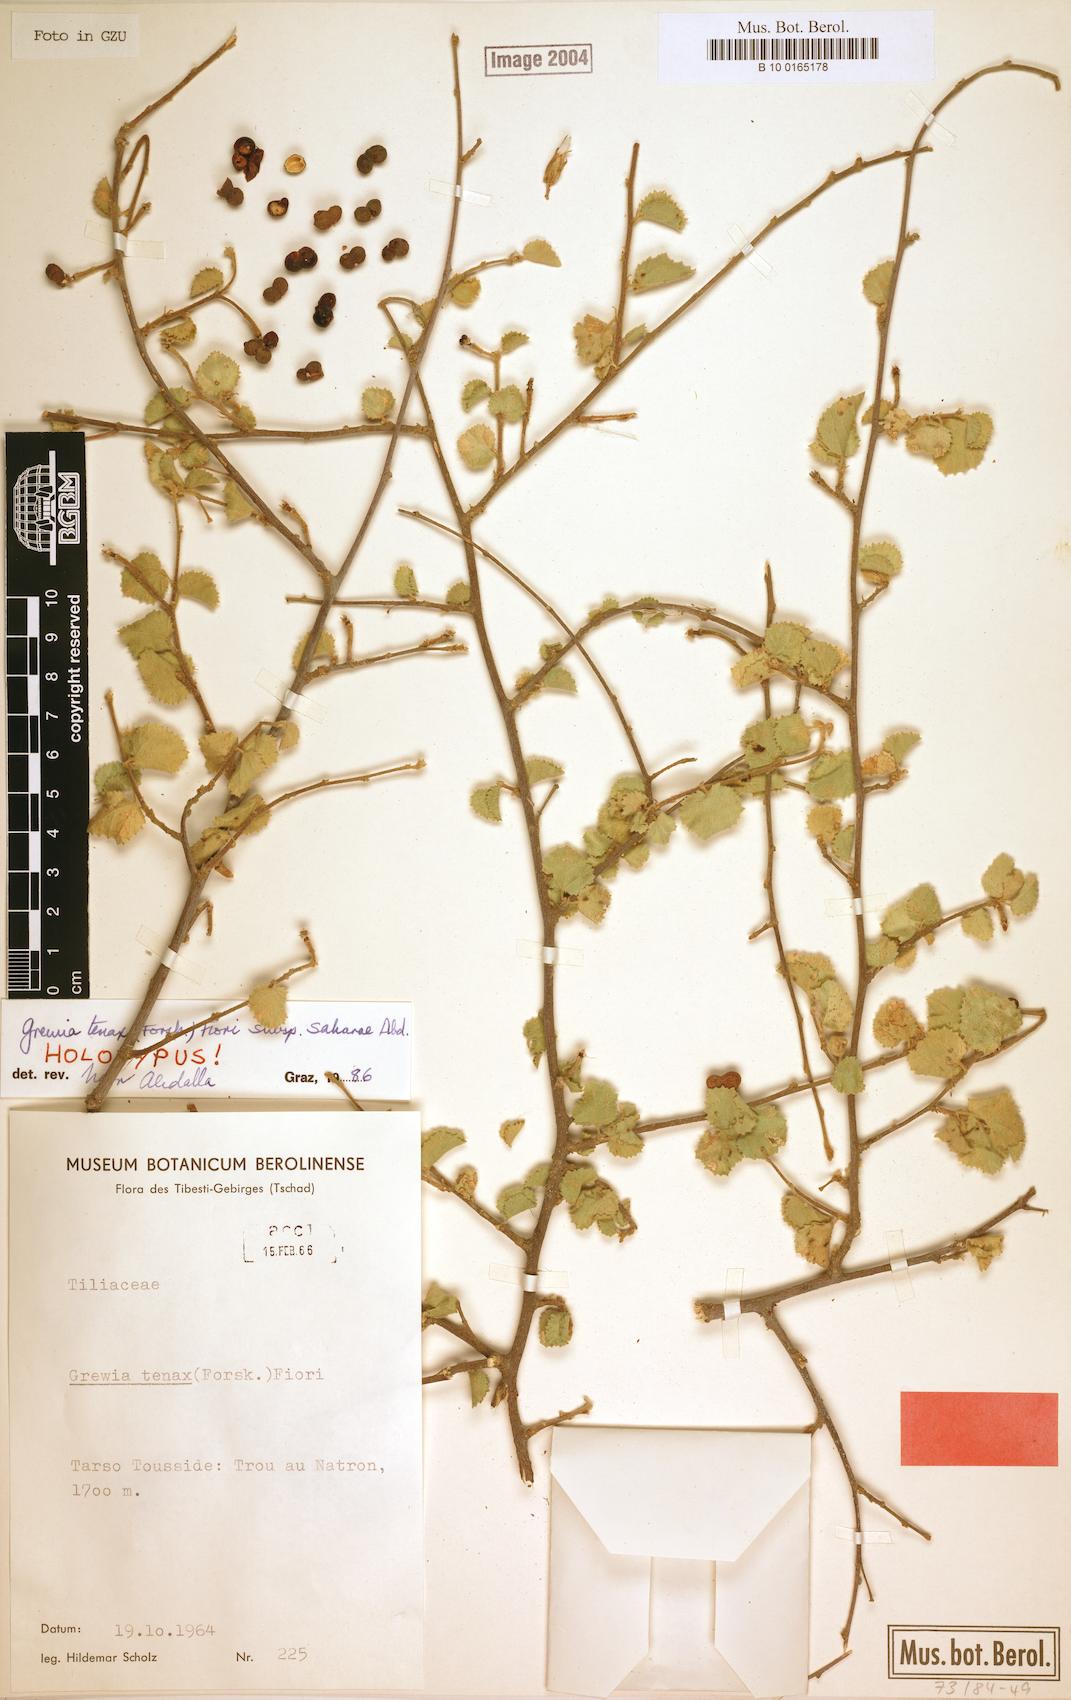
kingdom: Plantae
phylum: Tracheophyta
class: Magnoliopsida
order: Malvales
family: Malvaceae
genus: Grewia
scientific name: Grewia tenax
